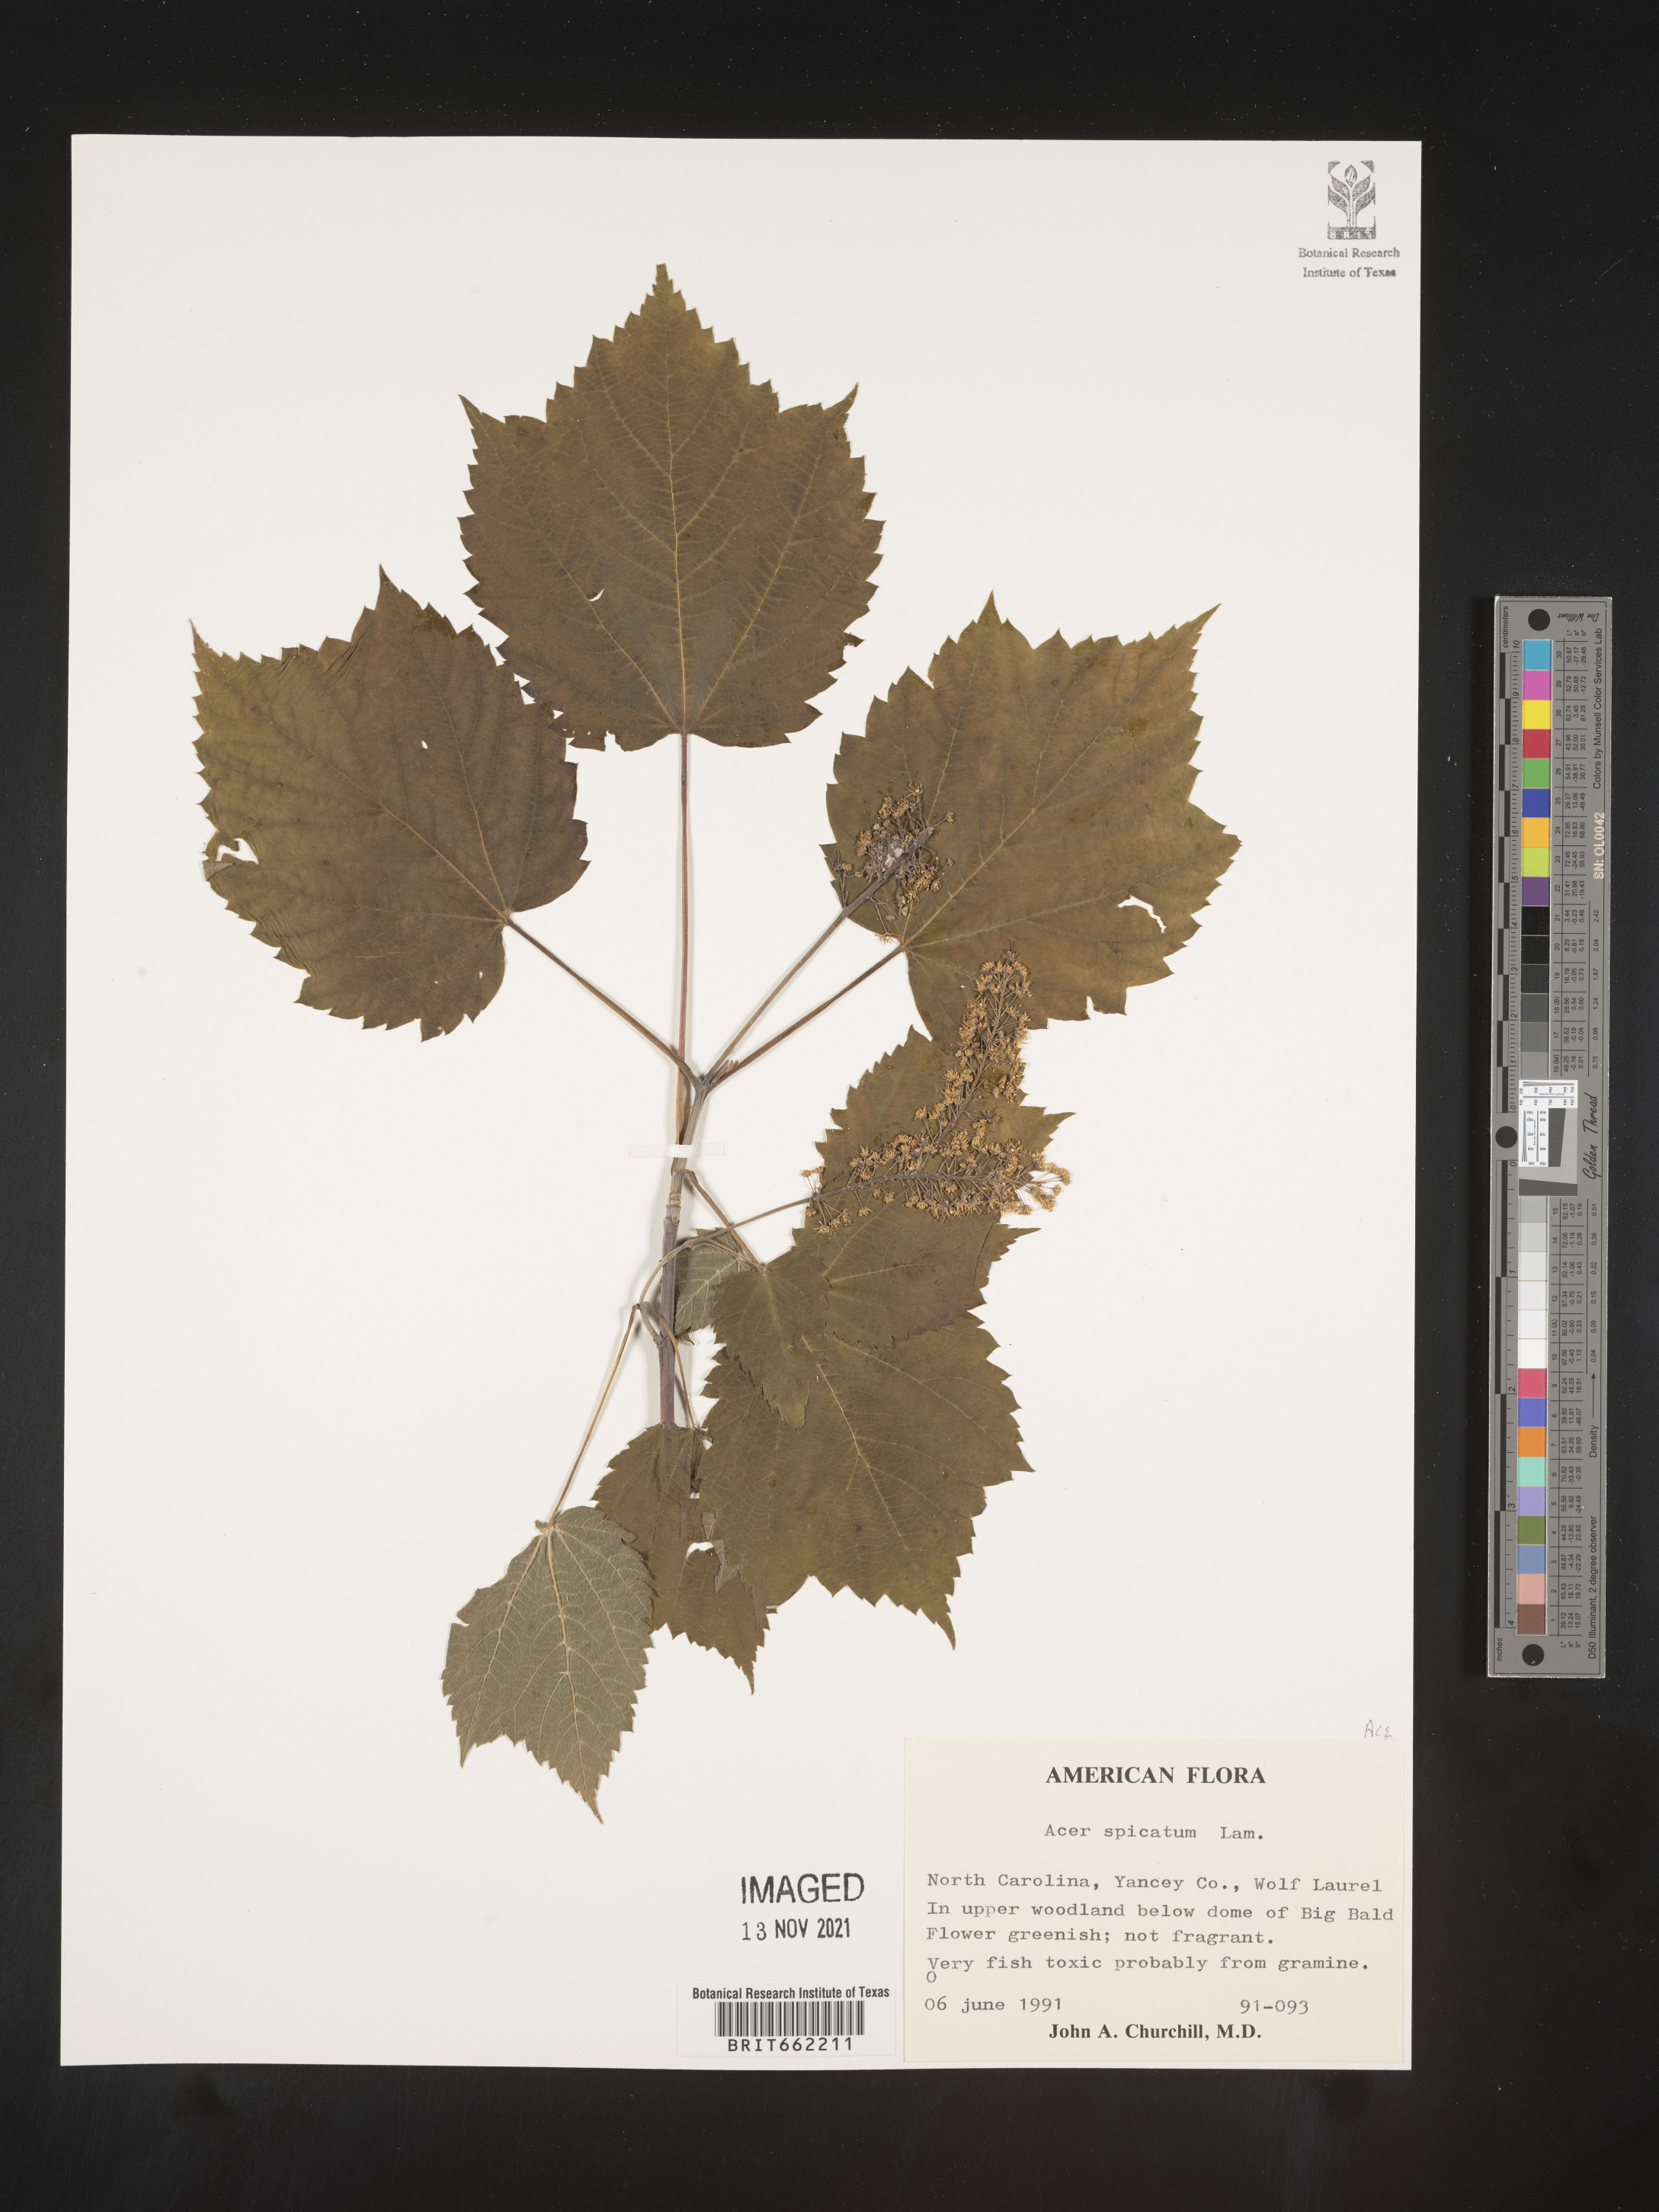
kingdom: Plantae
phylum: Tracheophyta
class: Magnoliopsida
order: Sapindales
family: Sapindaceae
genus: Acer
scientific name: Acer spicatum
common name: Mountain maple
